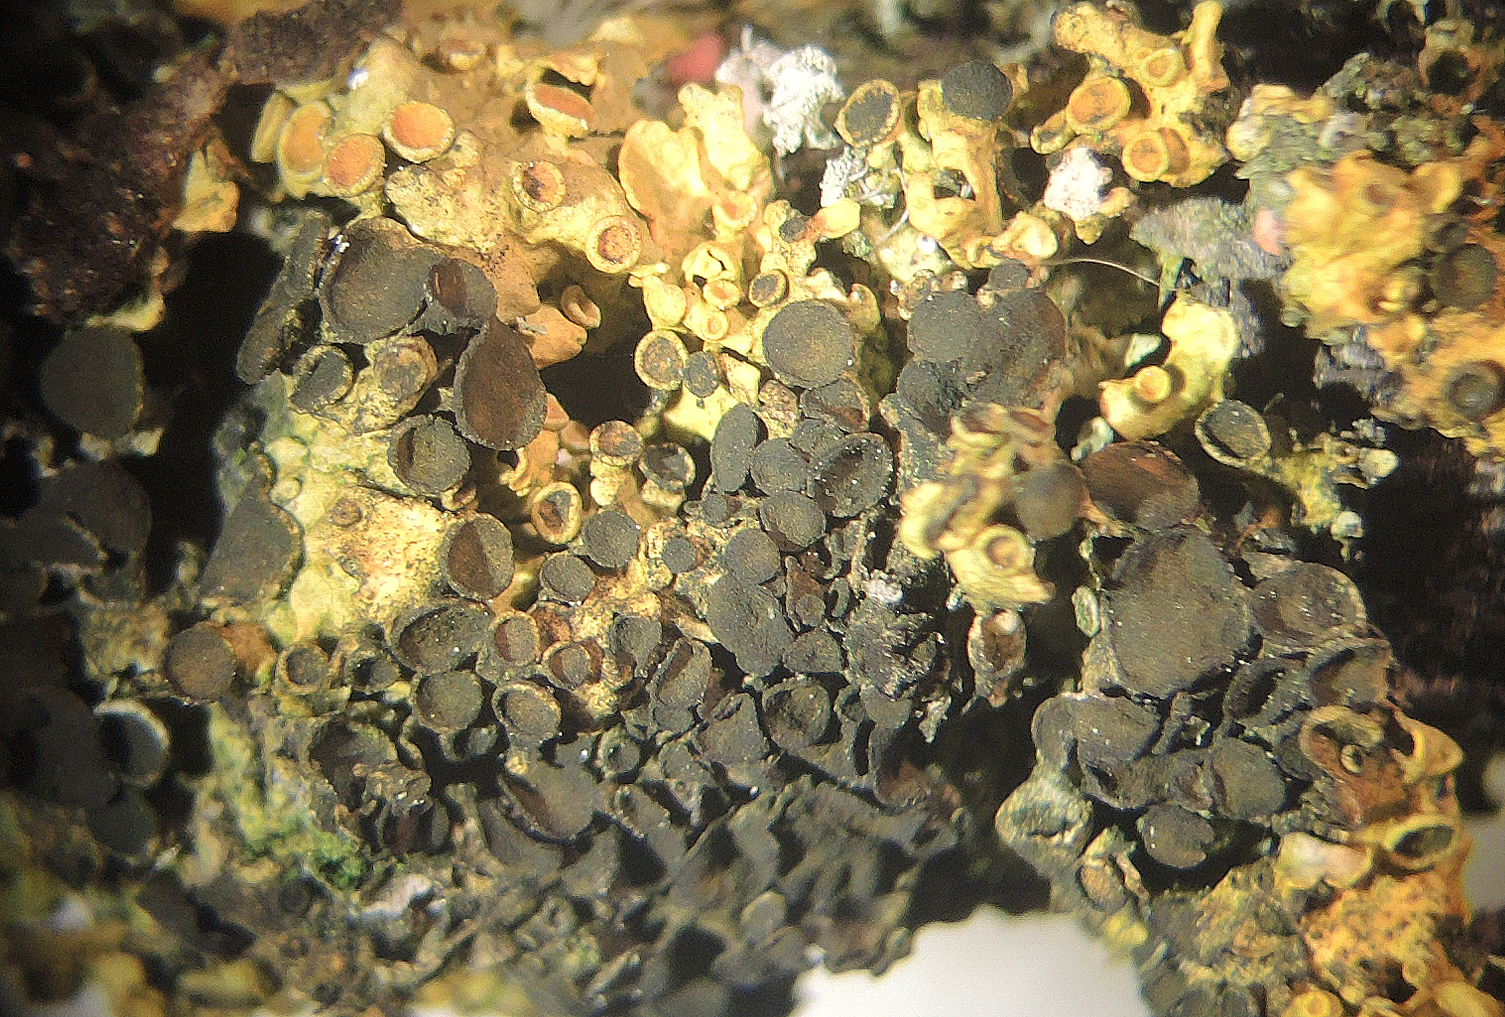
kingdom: Fungi
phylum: Ascomycota
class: Dothideomycetes
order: Mycosphaerellales
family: Teratosphaeriaceae
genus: Xanthoriicola
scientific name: Xanthoriicola physciae
